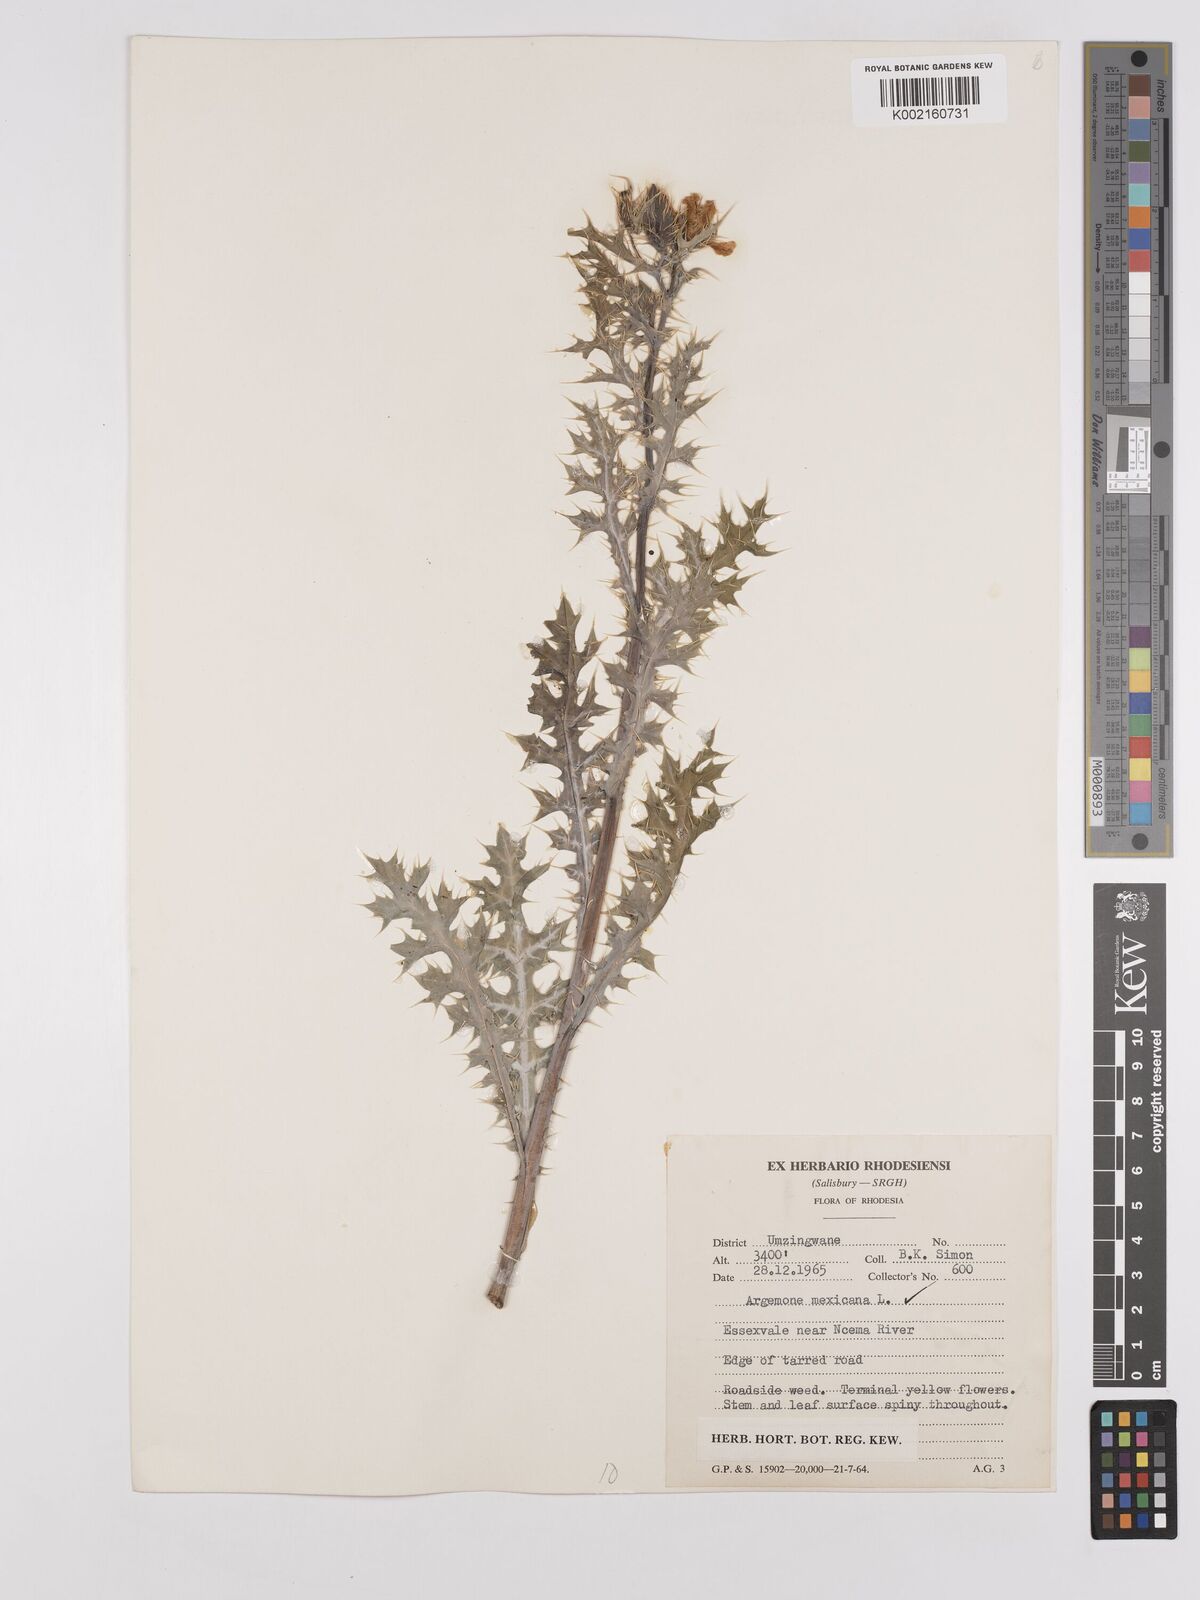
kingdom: Plantae
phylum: Tracheophyta
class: Magnoliopsida
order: Ranunculales
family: Papaveraceae
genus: Argemone
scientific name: Argemone mexicana
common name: Mexican poppy
